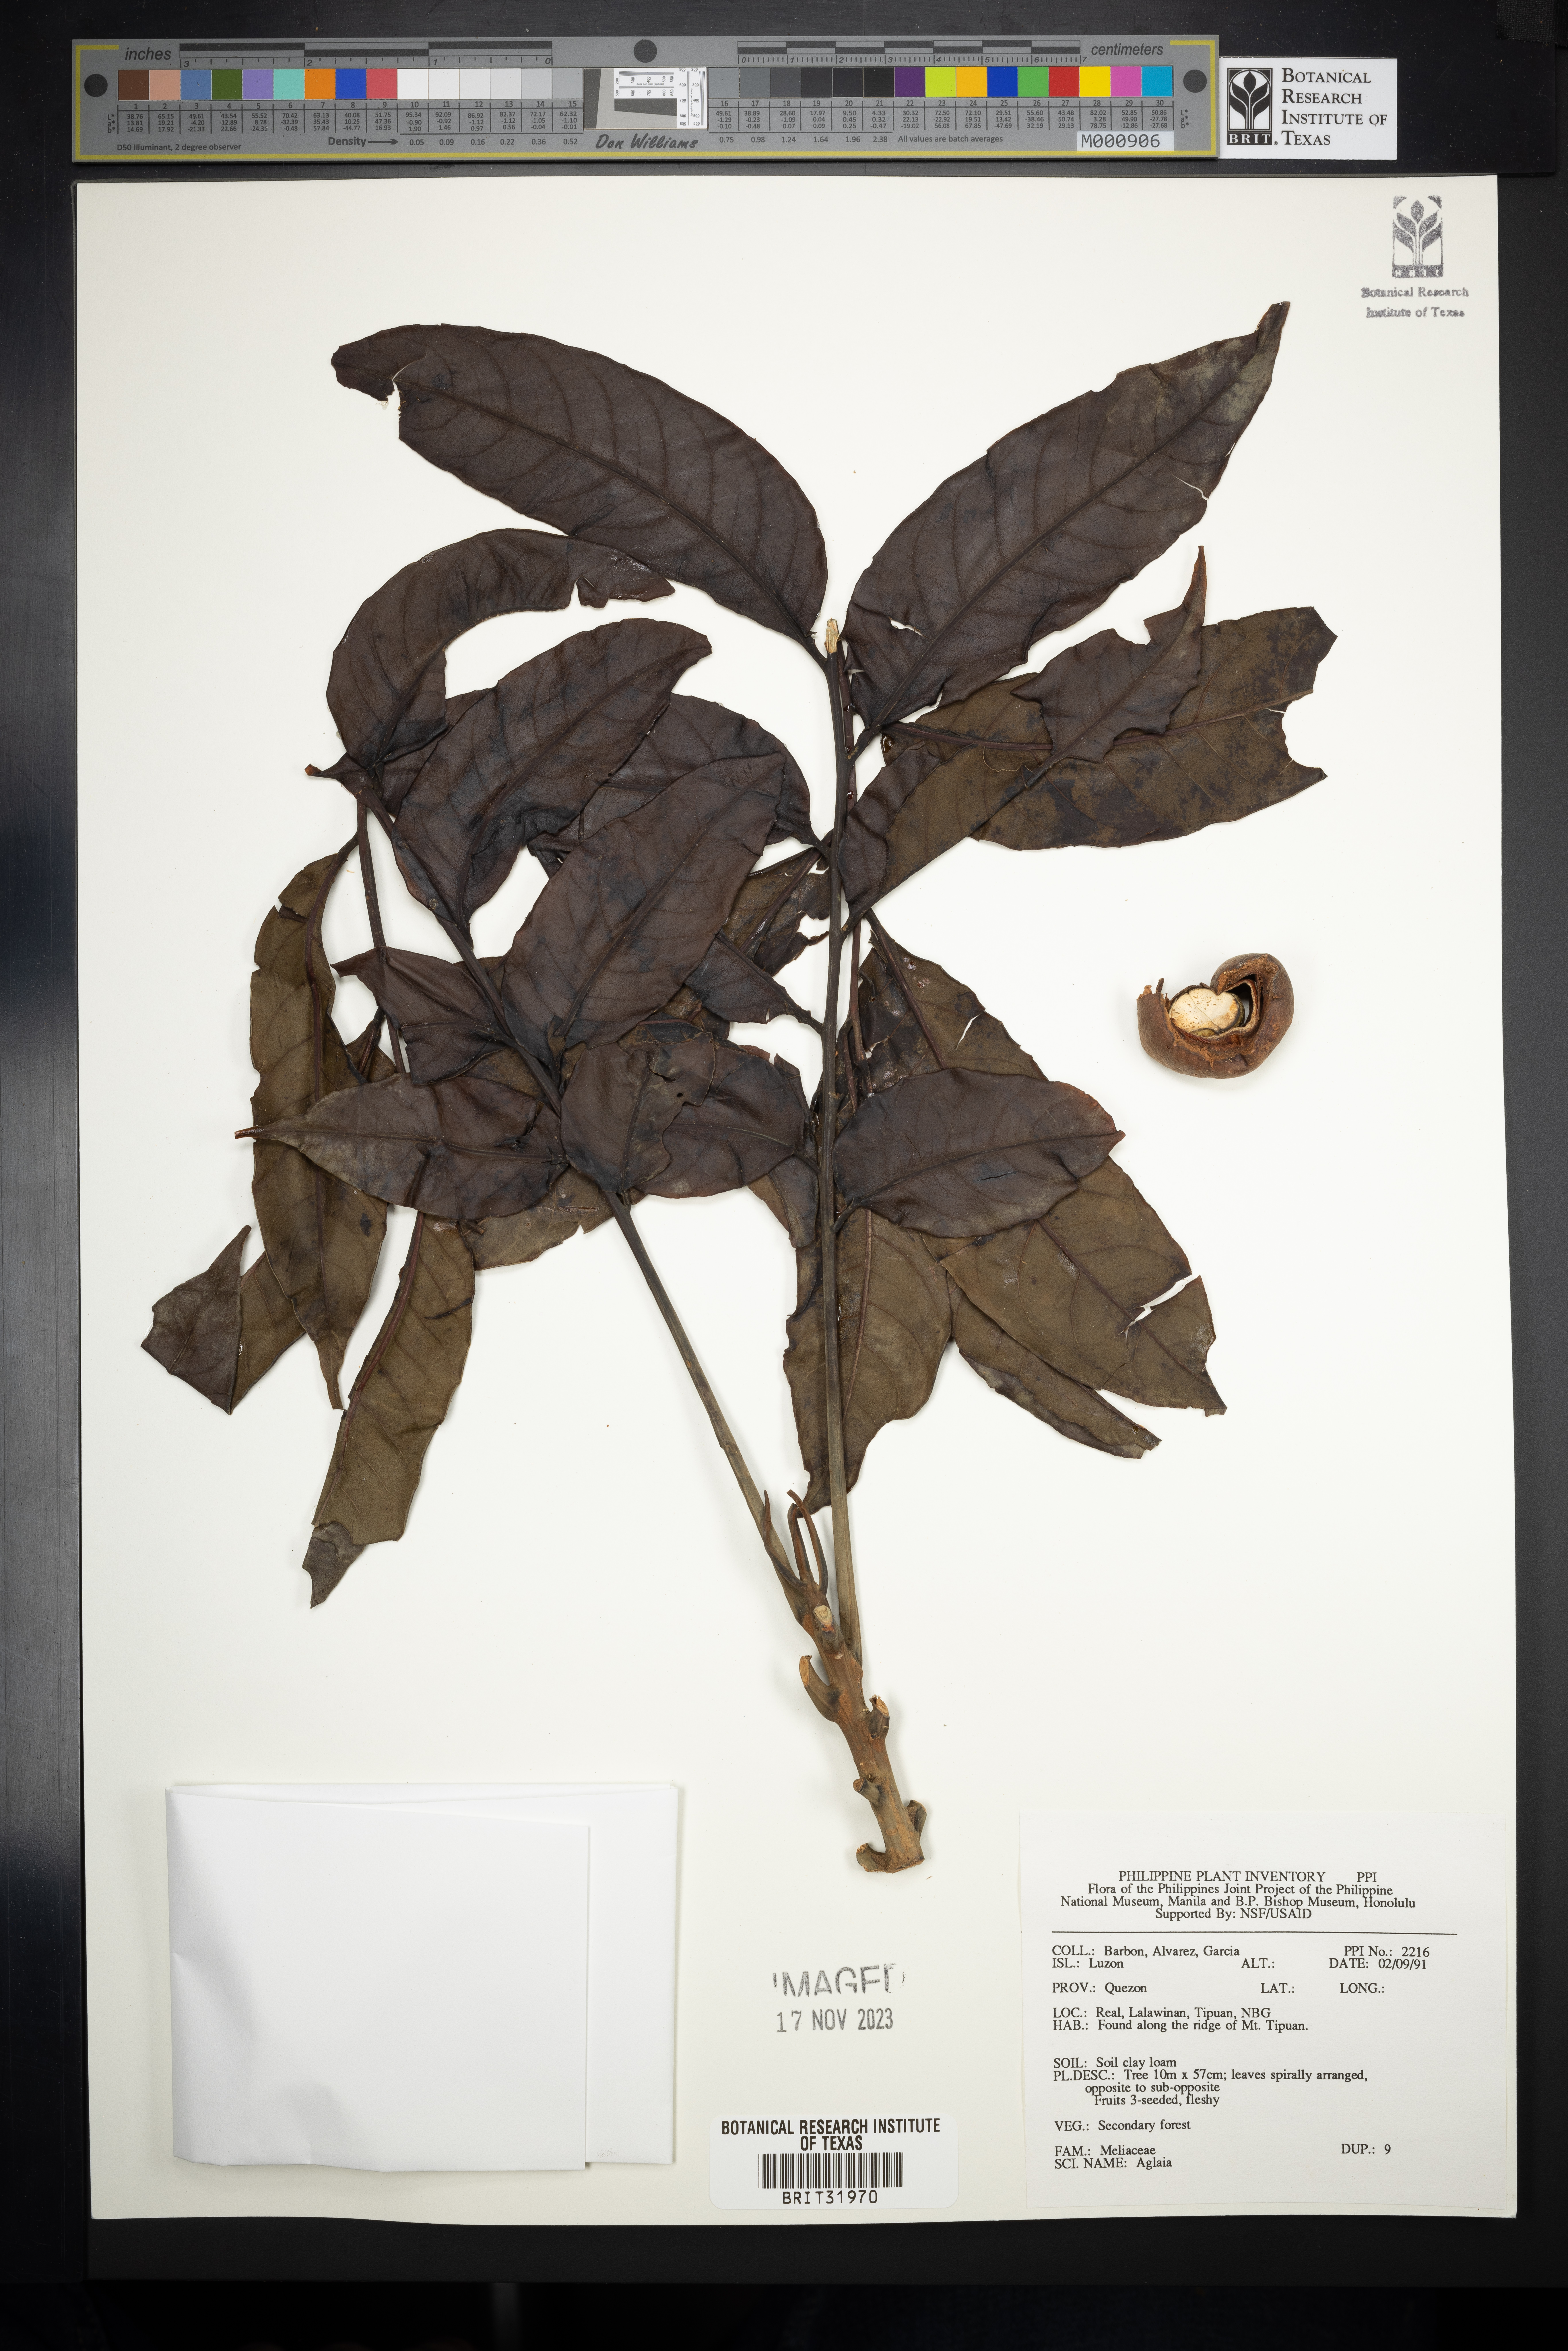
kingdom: Plantae
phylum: Tracheophyta
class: Magnoliopsida
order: Sapindales
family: Meliaceae
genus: Aglaia
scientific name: Aglaia
